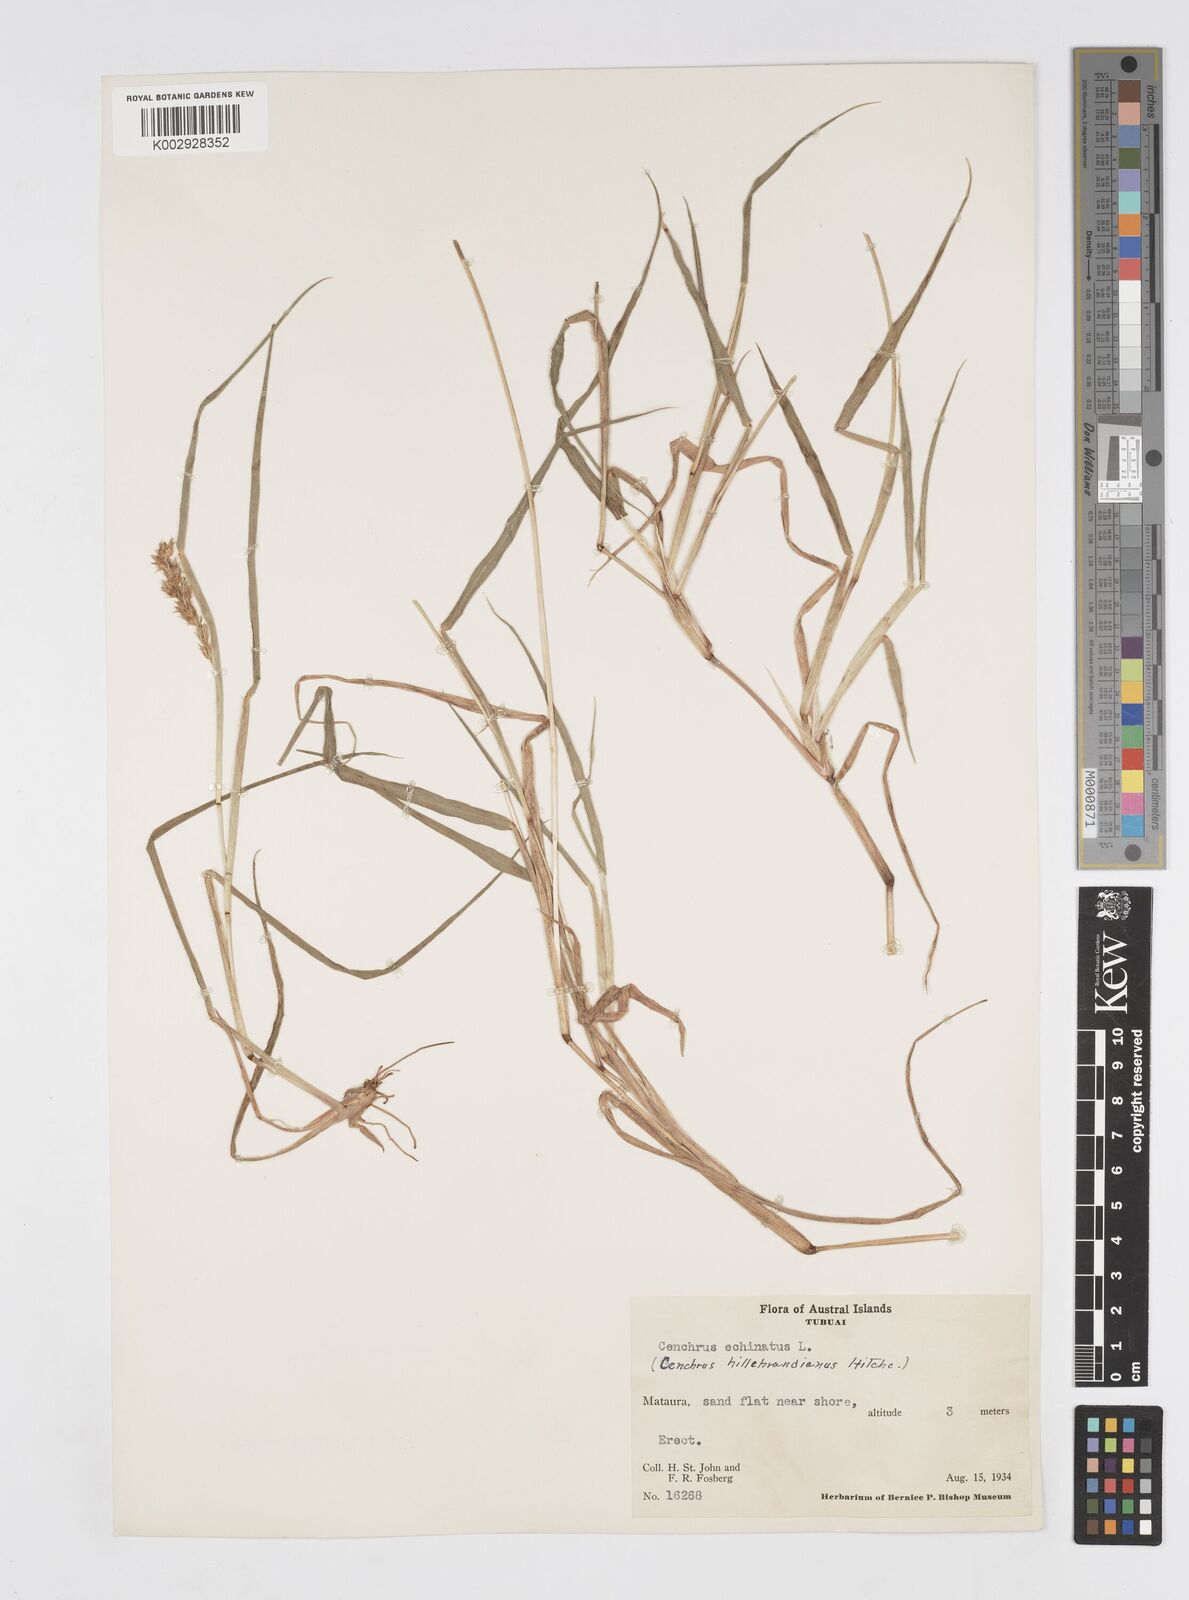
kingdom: Plantae
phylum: Tracheophyta
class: Liliopsida
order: Poales
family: Poaceae
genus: Cenchrus
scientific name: Cenchrus echinatus
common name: Southern sandbur
